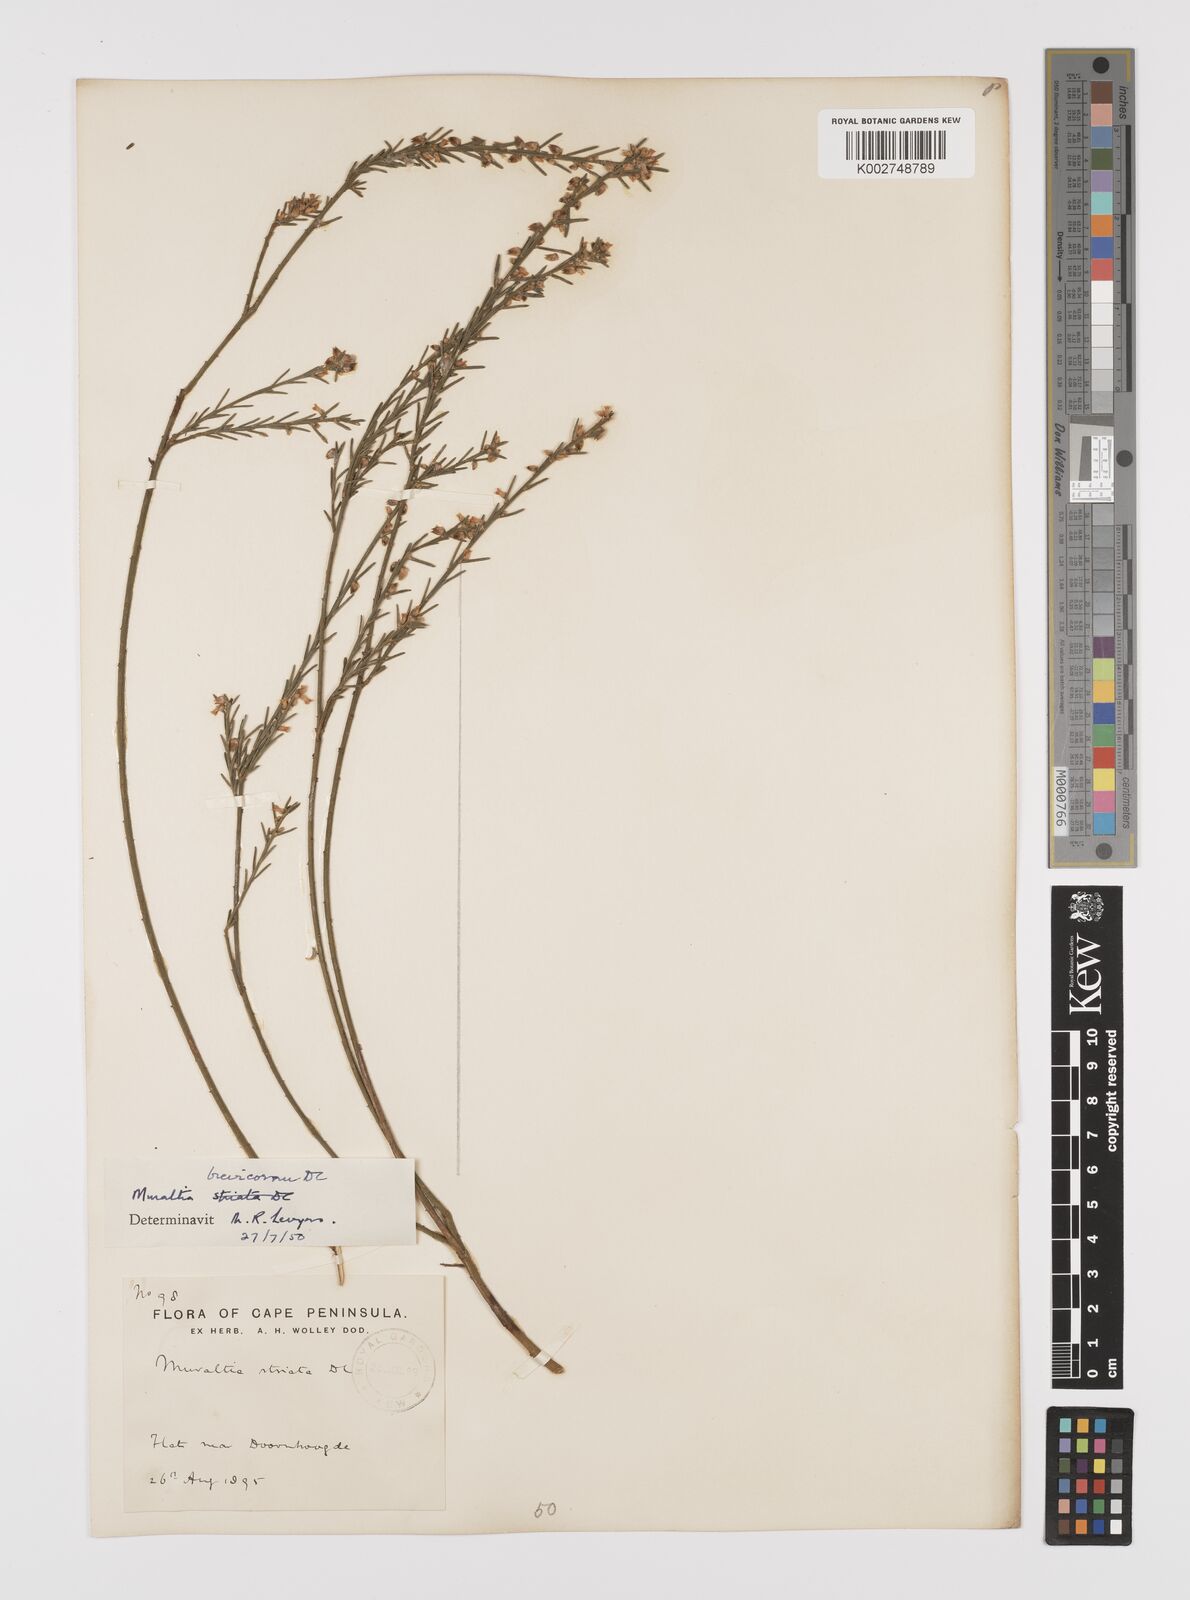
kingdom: Plantae
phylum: Tracheophyta
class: Magnoliopsida
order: Fabales
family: Polygalaceae
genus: Muraltia
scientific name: Muraltia striata
